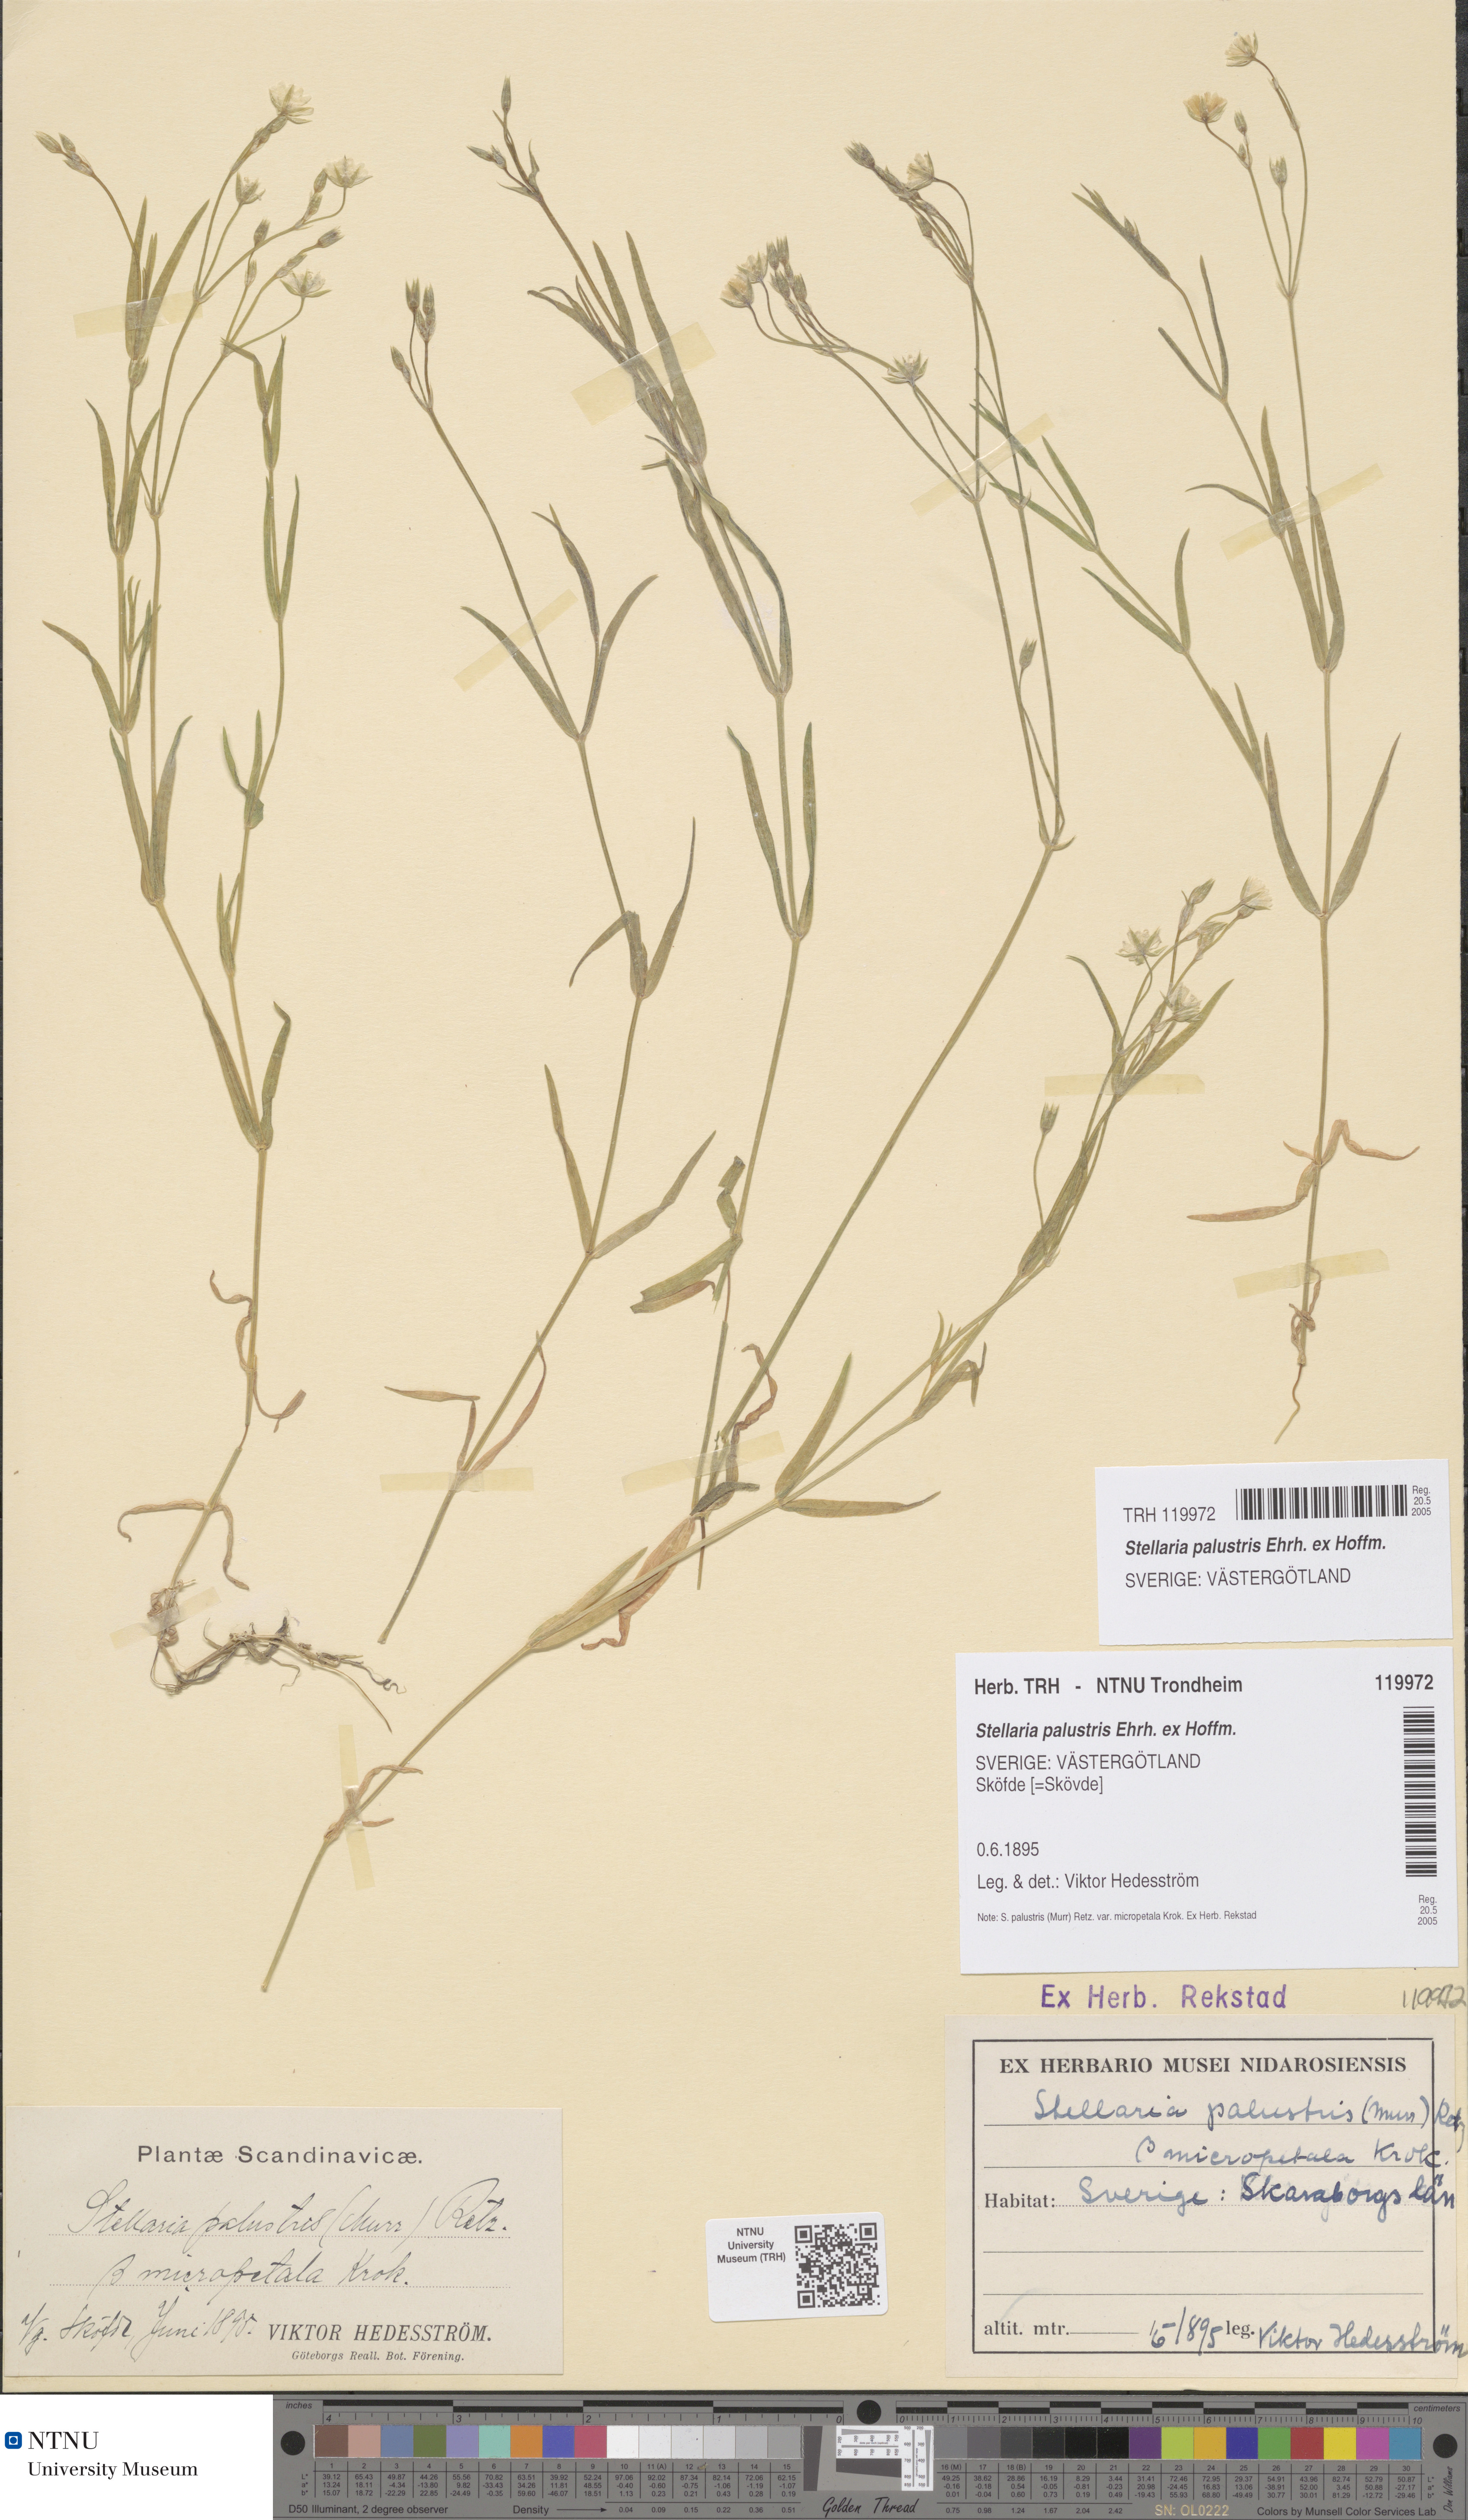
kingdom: Plantae
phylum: Tracheophyta
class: Magnoliopsida
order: Caryophyllales
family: Caryophyllaceae
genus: Stellaria
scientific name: Stellaria palustris
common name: Marsh stitchwort
